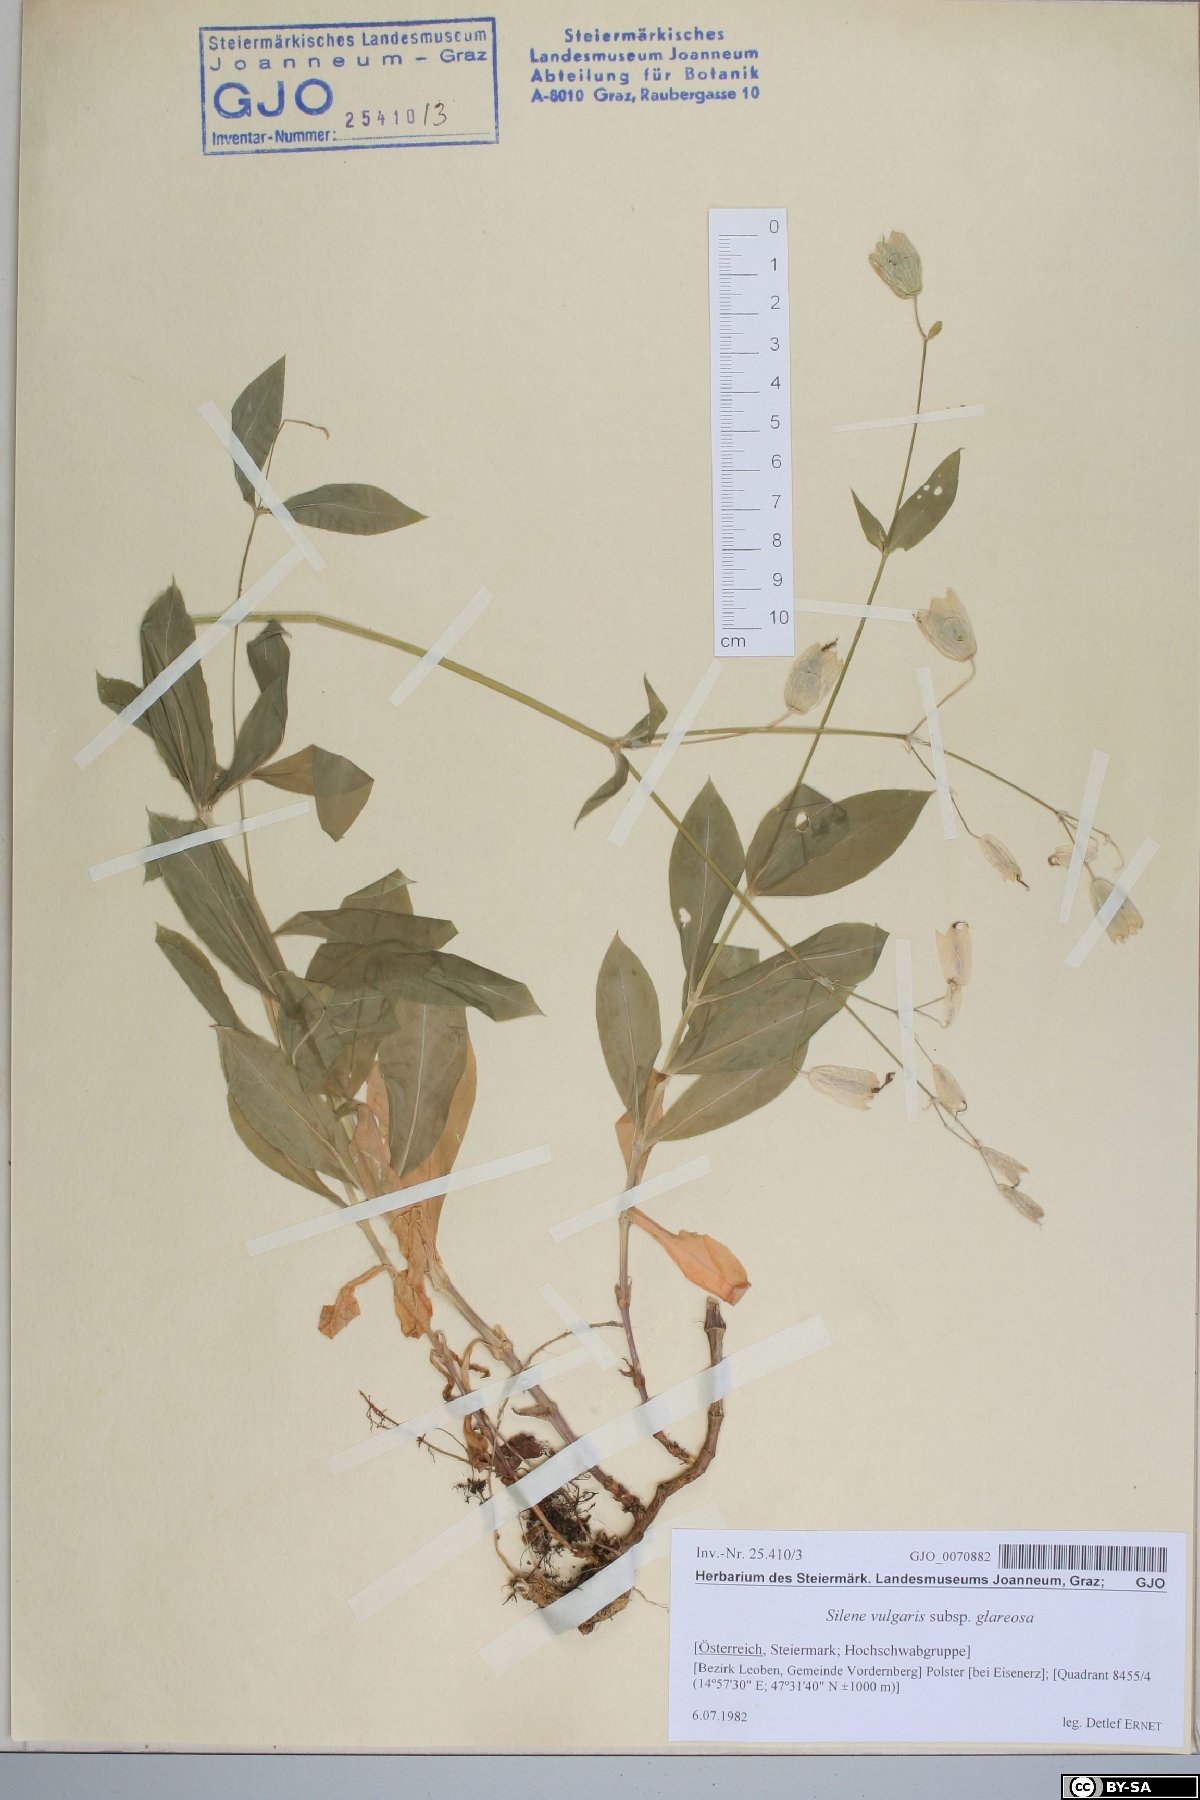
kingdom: Plantae
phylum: Tracheophyta
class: Magnoliopsida
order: Caryophyllales
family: Caryophyllaceae
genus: Silene
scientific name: Silene glareosa
